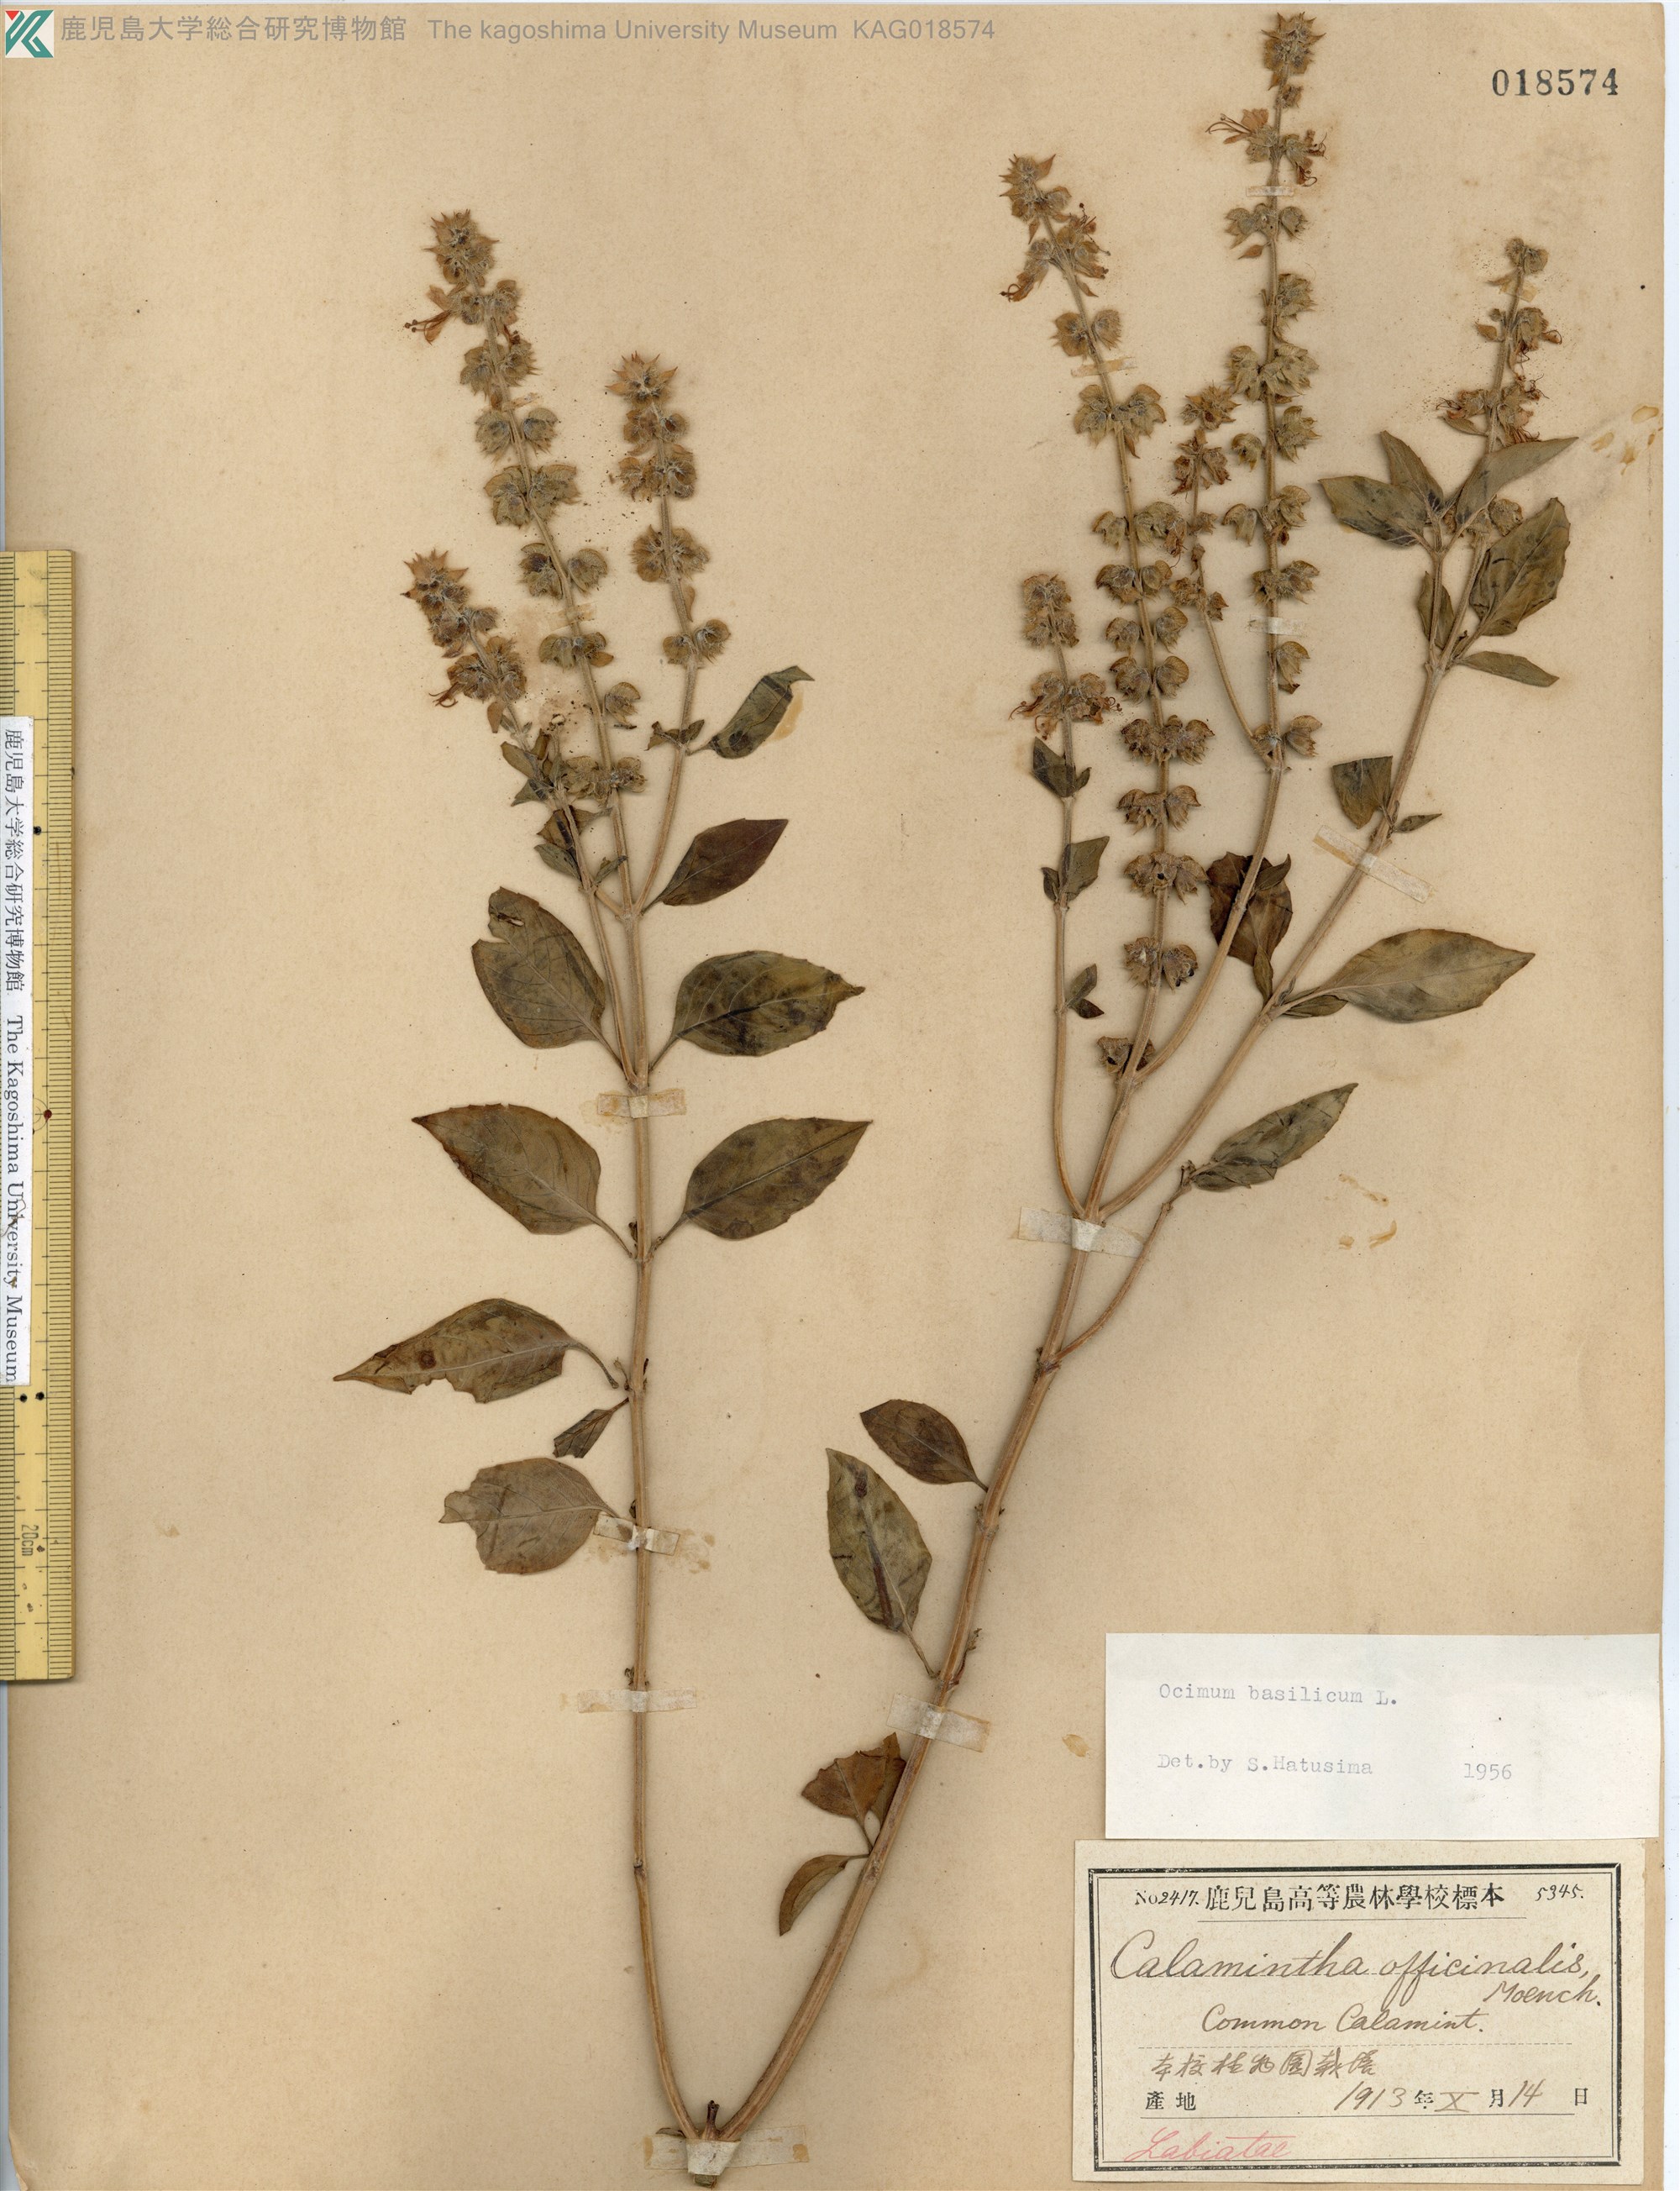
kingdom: Plantae
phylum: Tracheophyta
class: Magnoliopsida
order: Lamiales
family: Lamiaceae
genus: Ocimum
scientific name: Ocimum basilicum
